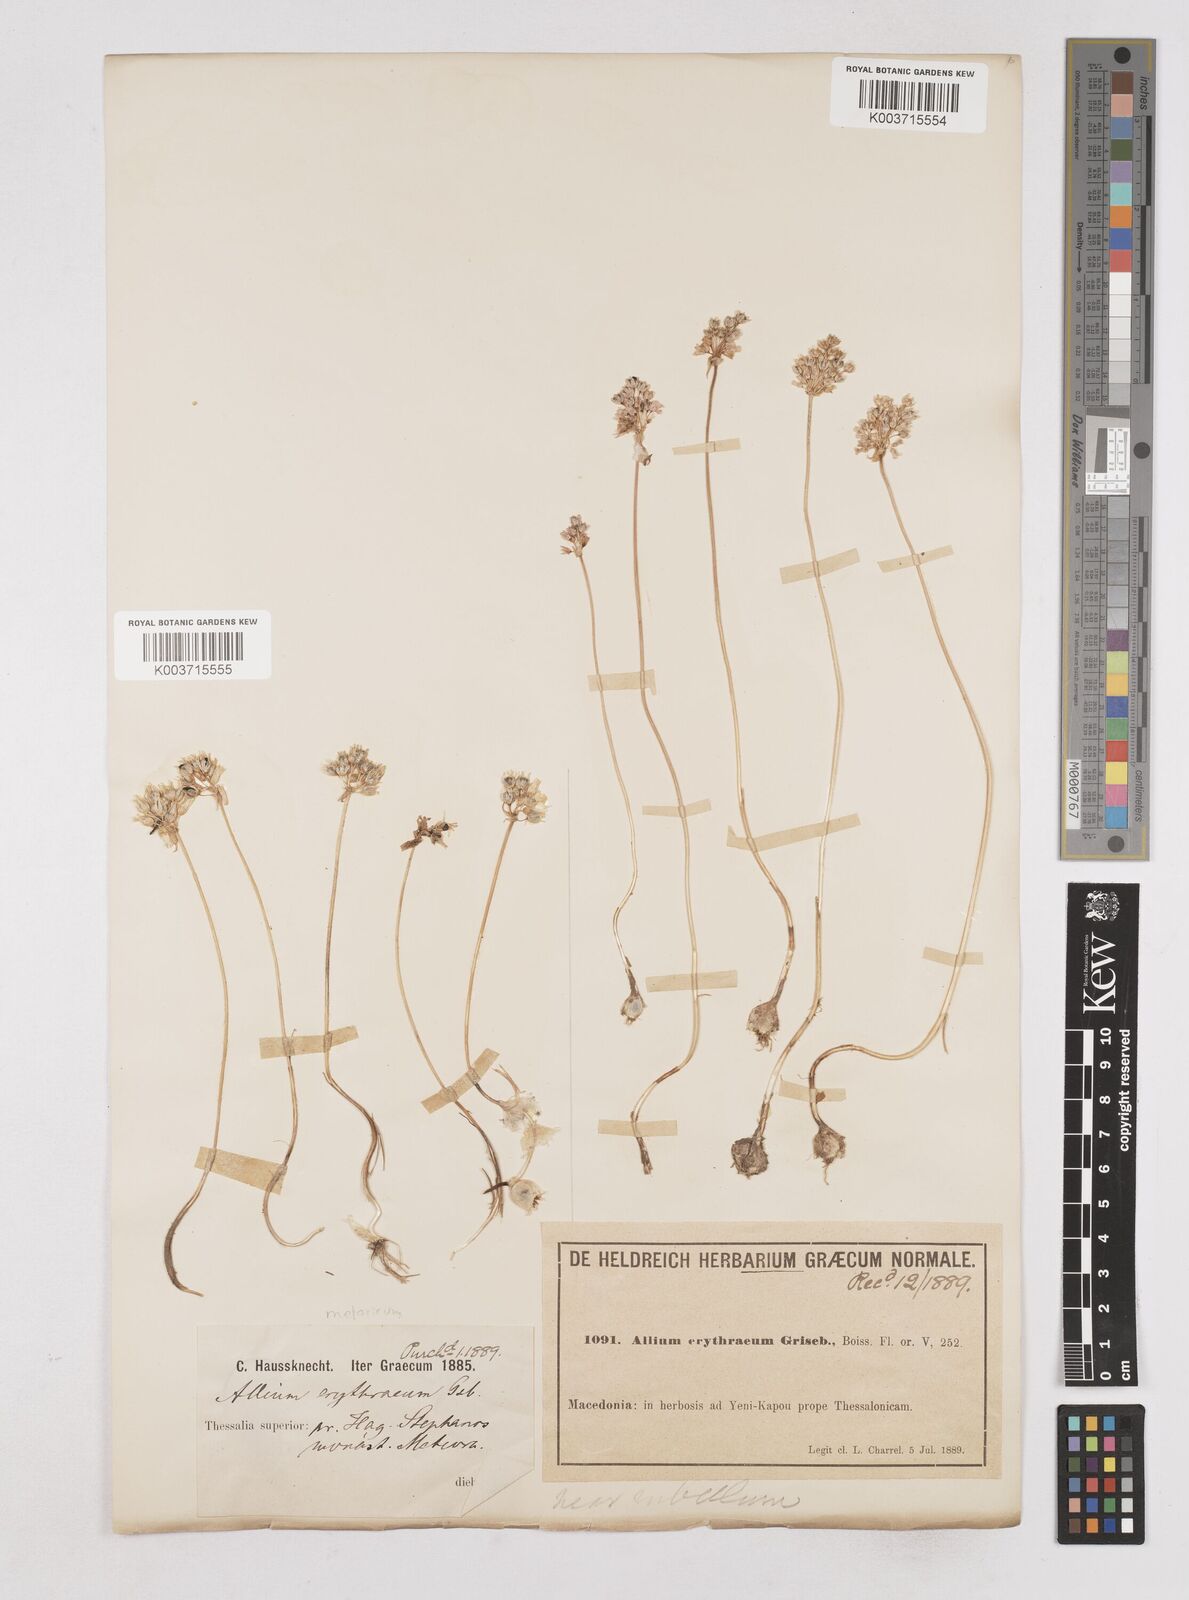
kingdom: Plantae
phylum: Tracheophyta
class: Liliopsida
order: Asparagales
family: Amaryllidaceae
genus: Allium
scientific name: Allium
